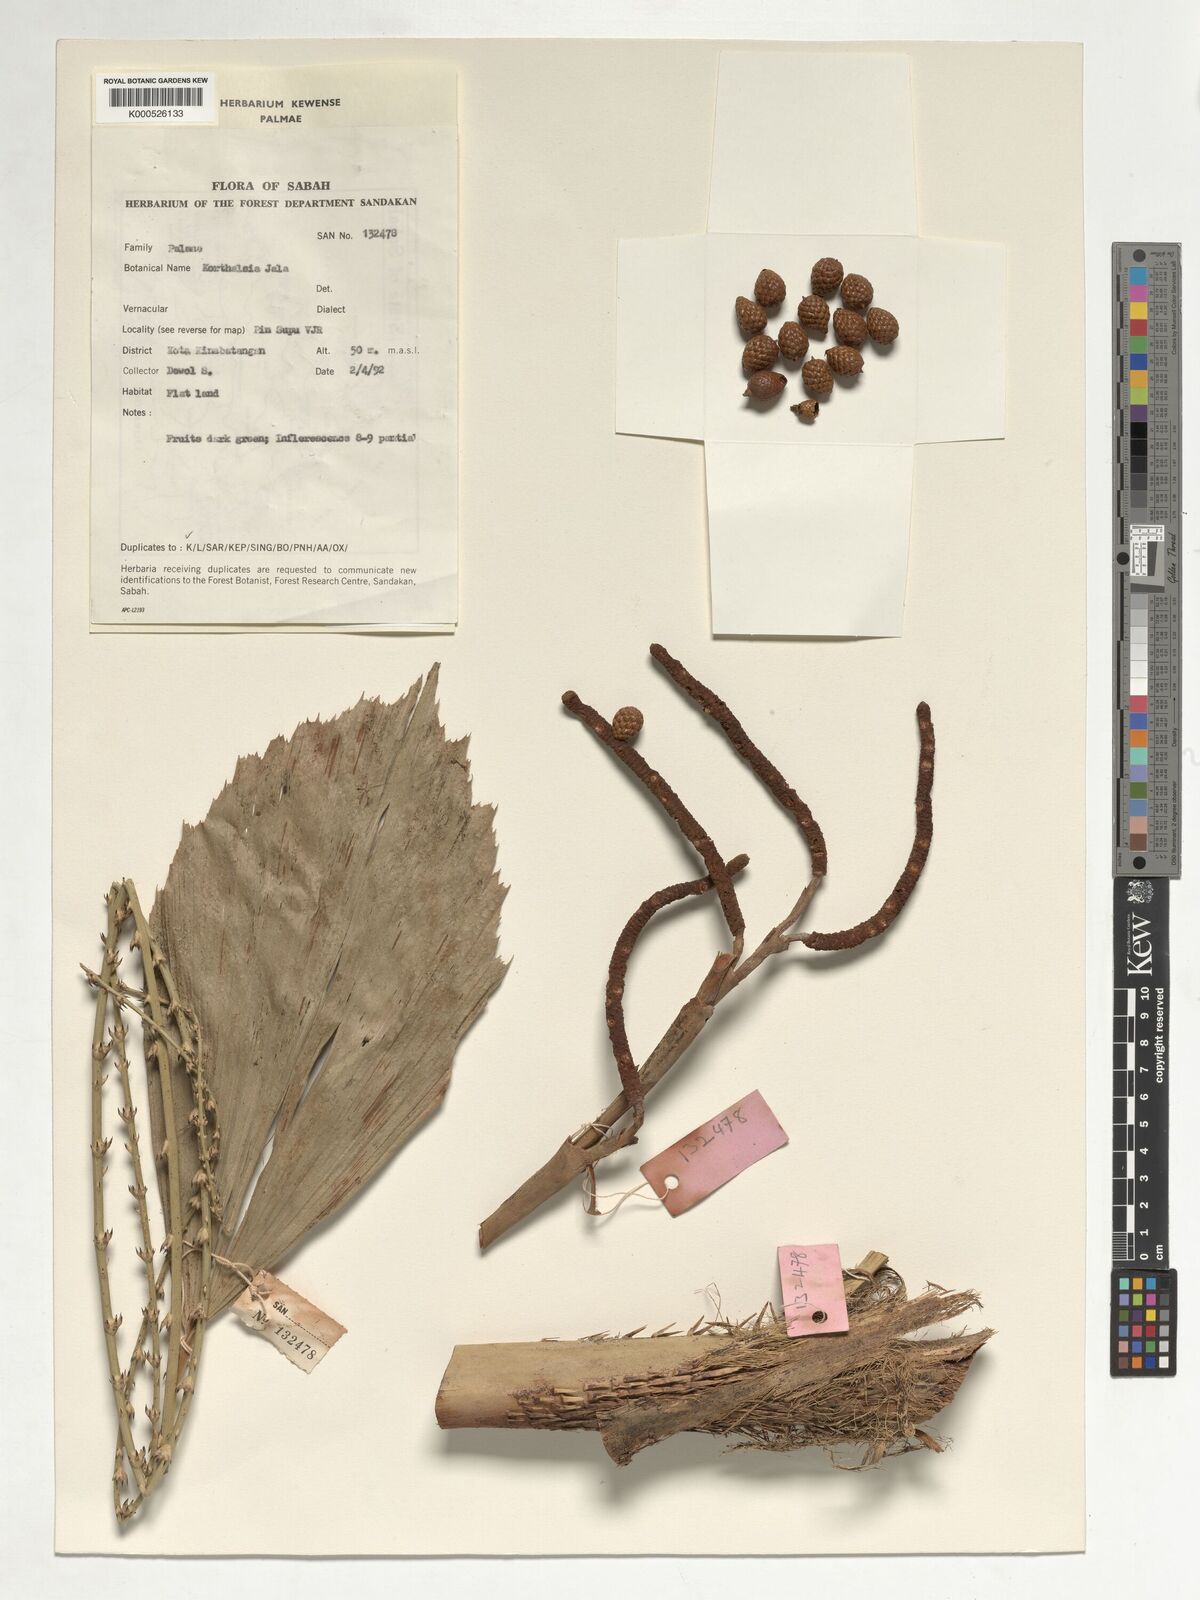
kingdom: Plantae
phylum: Tracheophyta
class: Liliopsida
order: Arecales
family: Arecaceae
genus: Korthalsia
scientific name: Korthalsia jala
